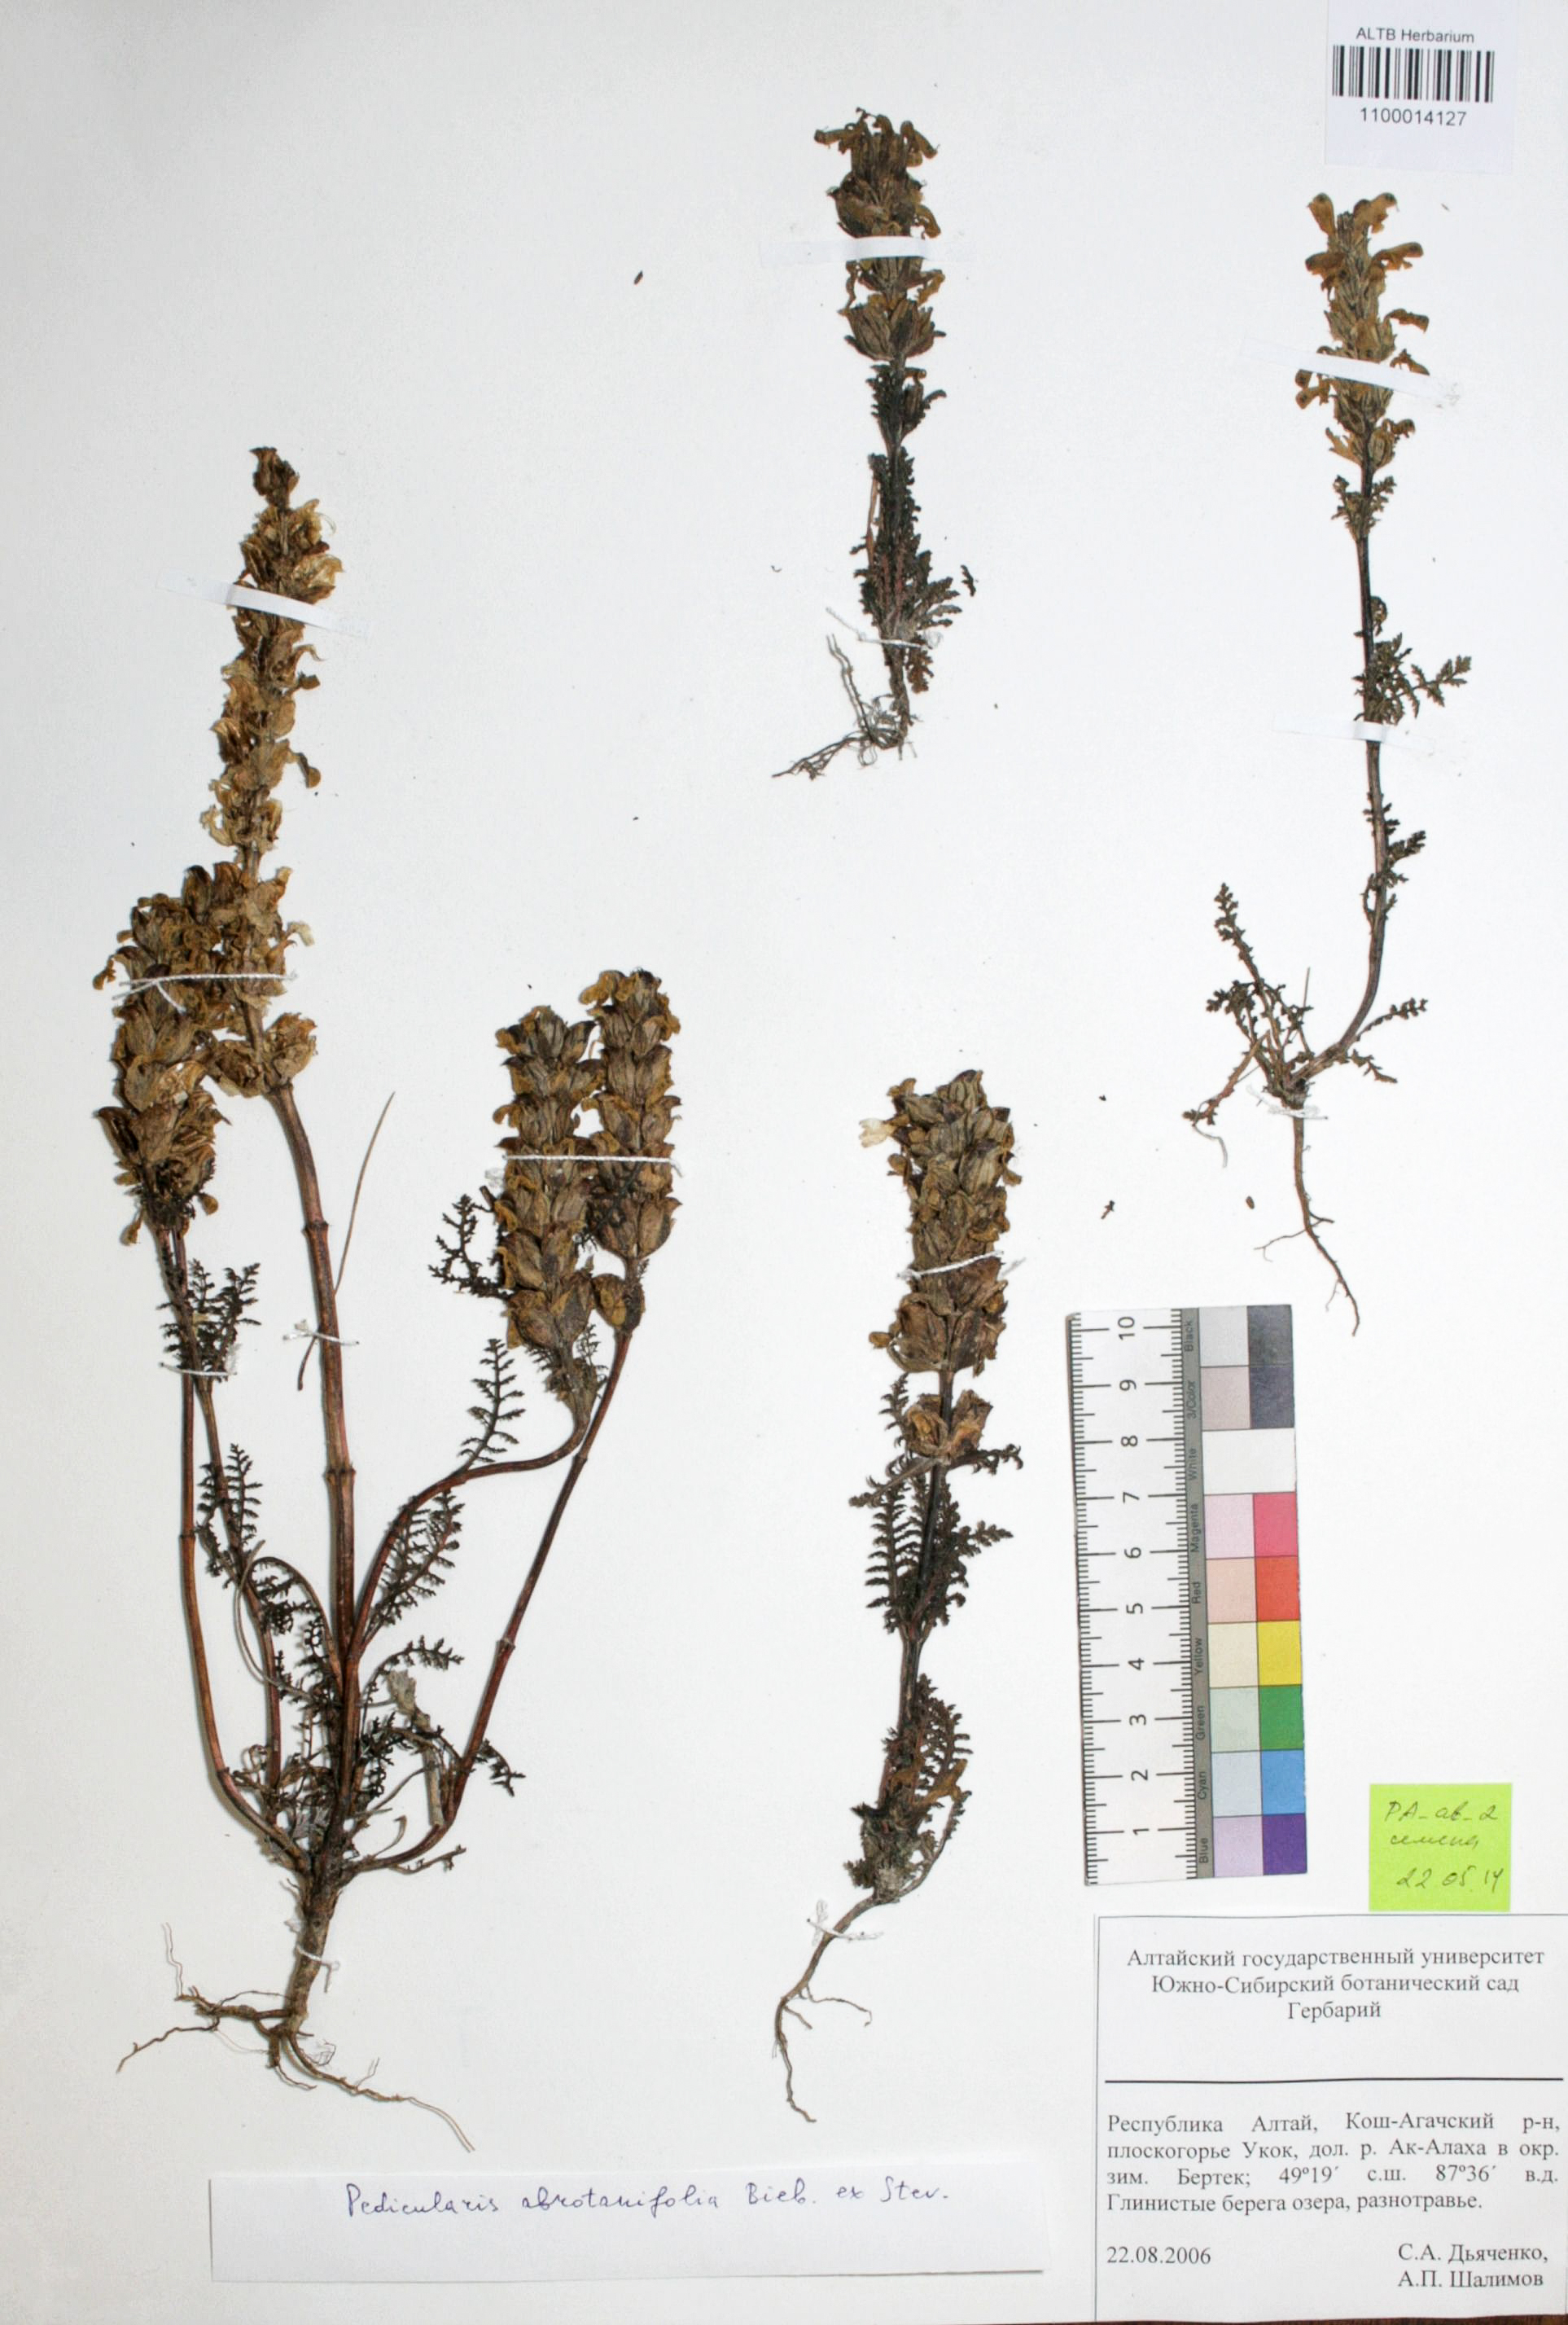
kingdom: Plantae
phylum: Tracheophyta
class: Magnoliopsida
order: Lamiales
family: Orobanchaceae
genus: Pedicularis
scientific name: Pedicularis abrotanifolia
